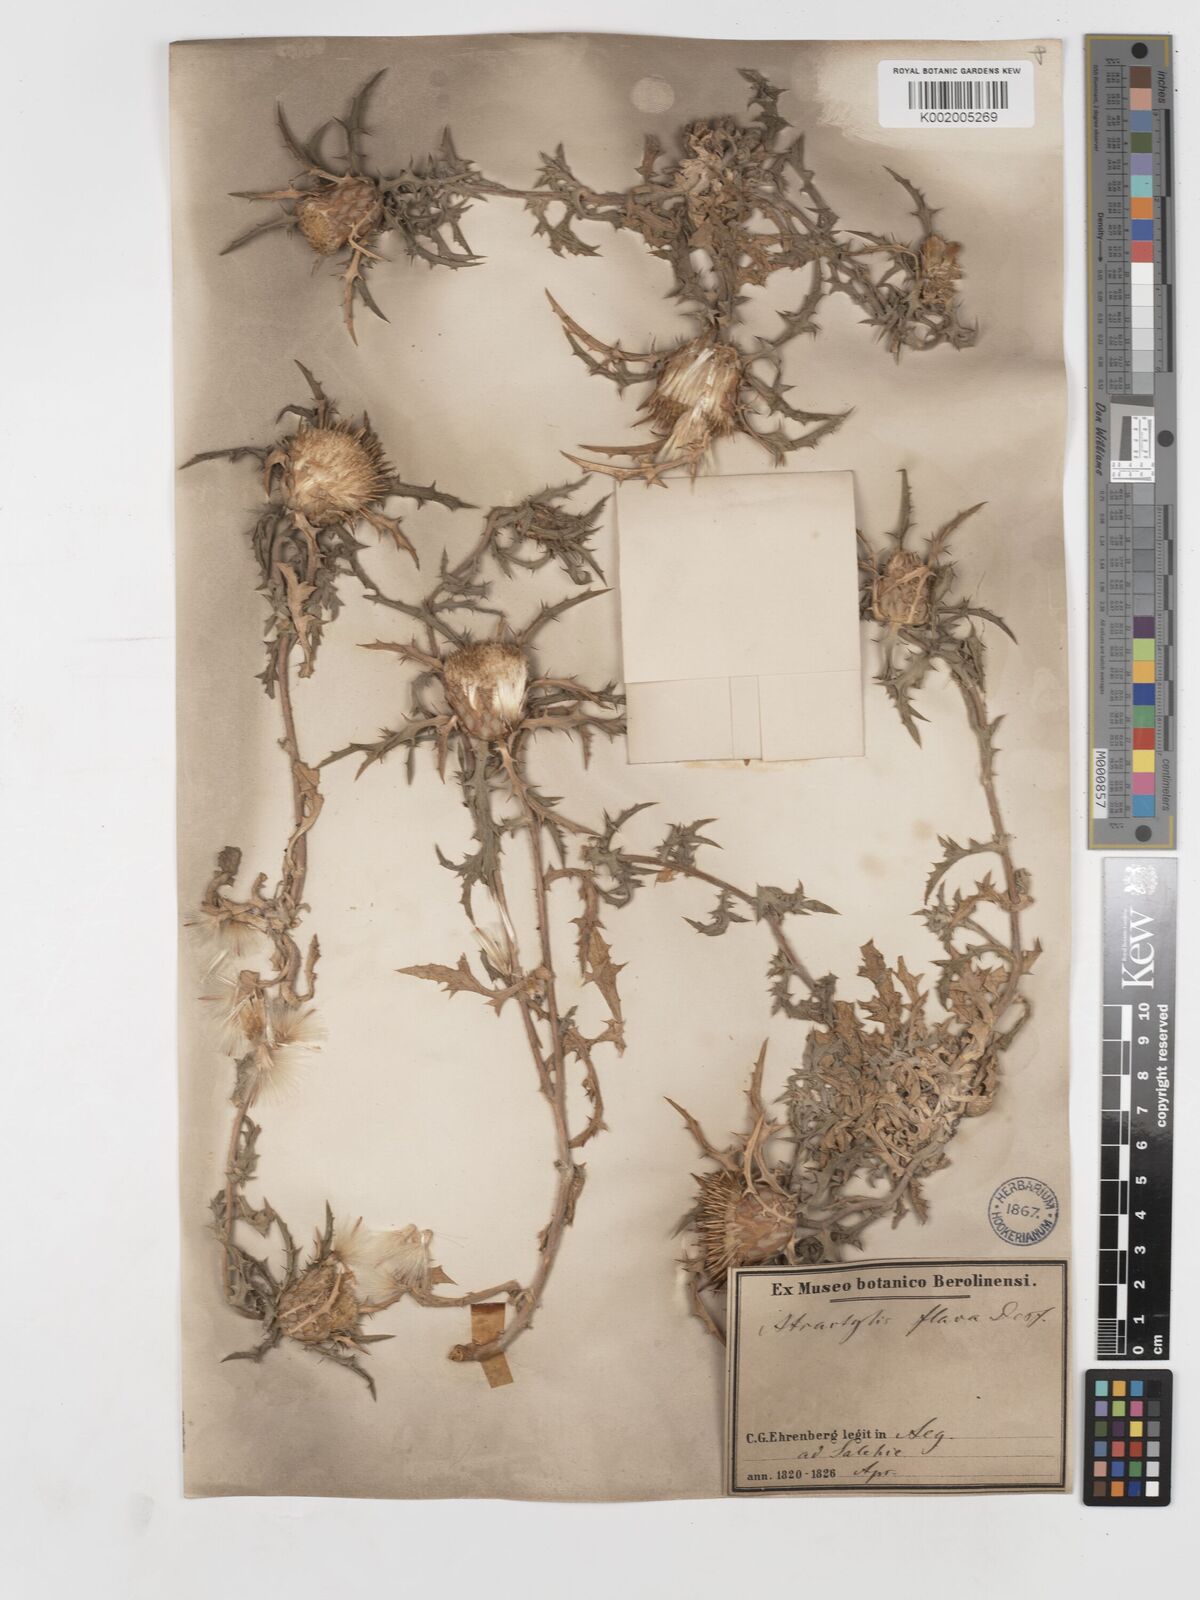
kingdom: Plantae
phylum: Tracheophyta
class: Magnoliopsida
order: Asterales
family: Asteraceae
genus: Atractylis
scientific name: Atractylis carduus
